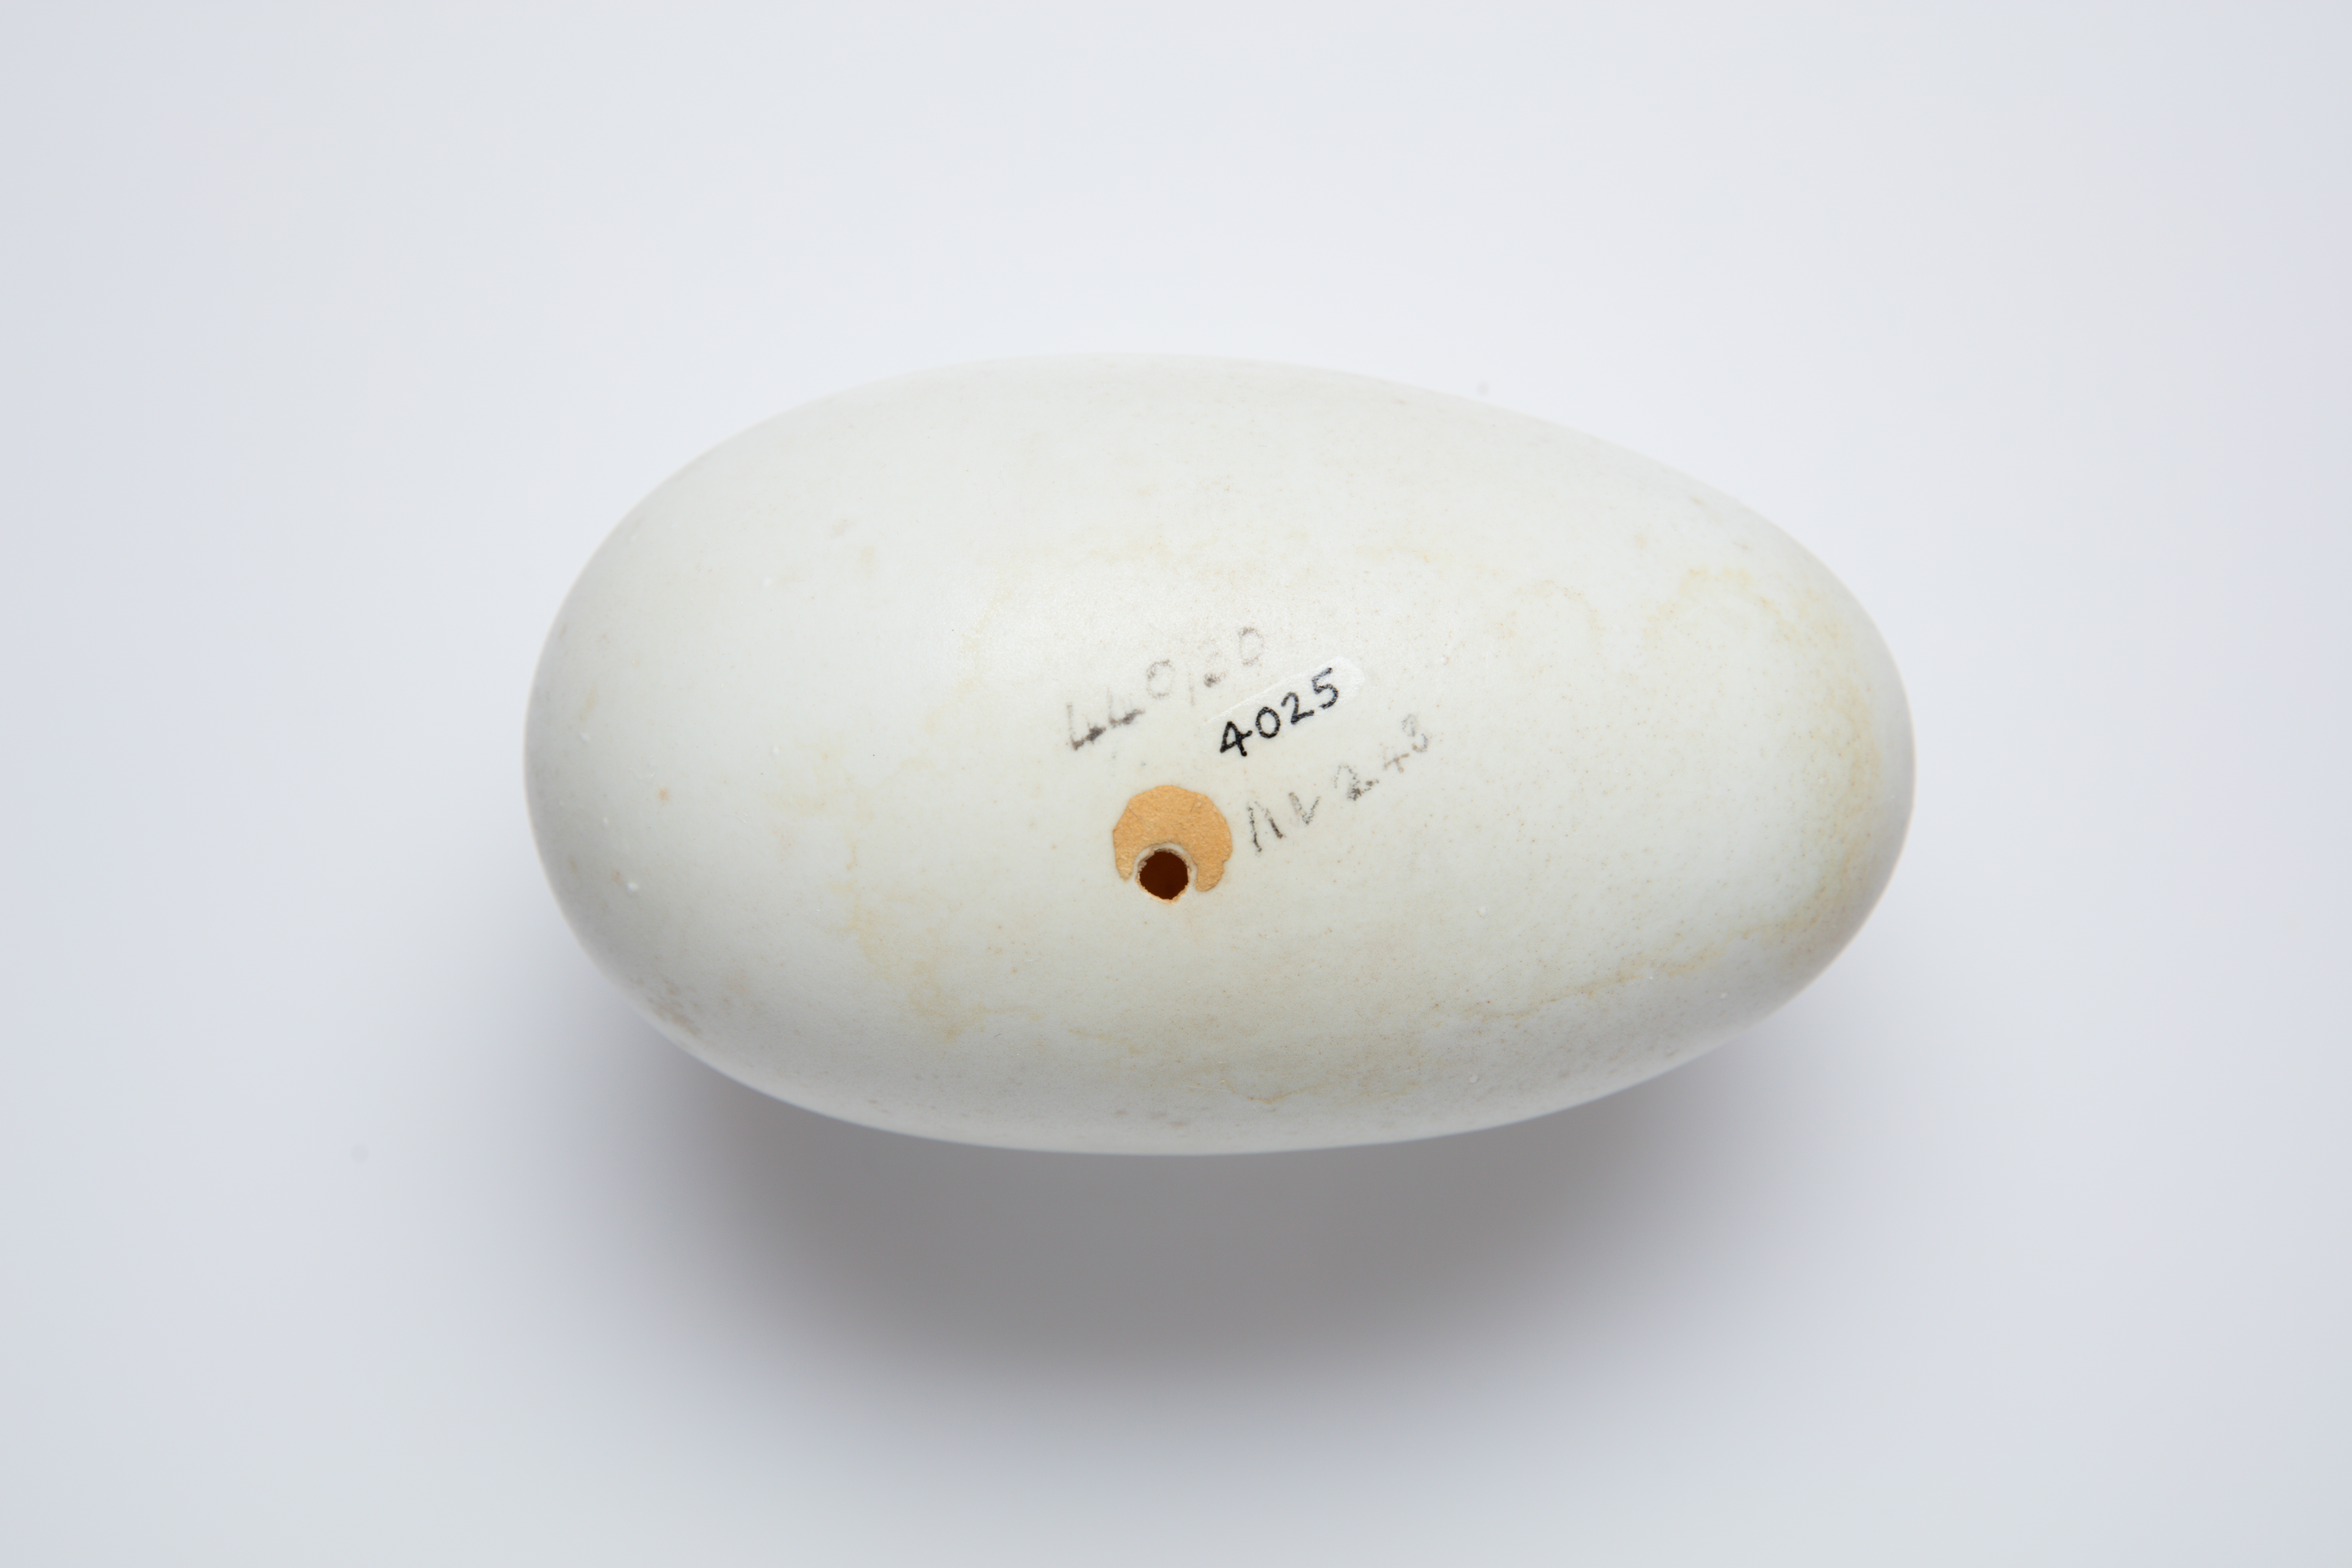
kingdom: Animalia
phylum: Chordata
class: Aves
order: Apterygiformes
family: Apterygidae
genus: Apteryx
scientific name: Apteryx
